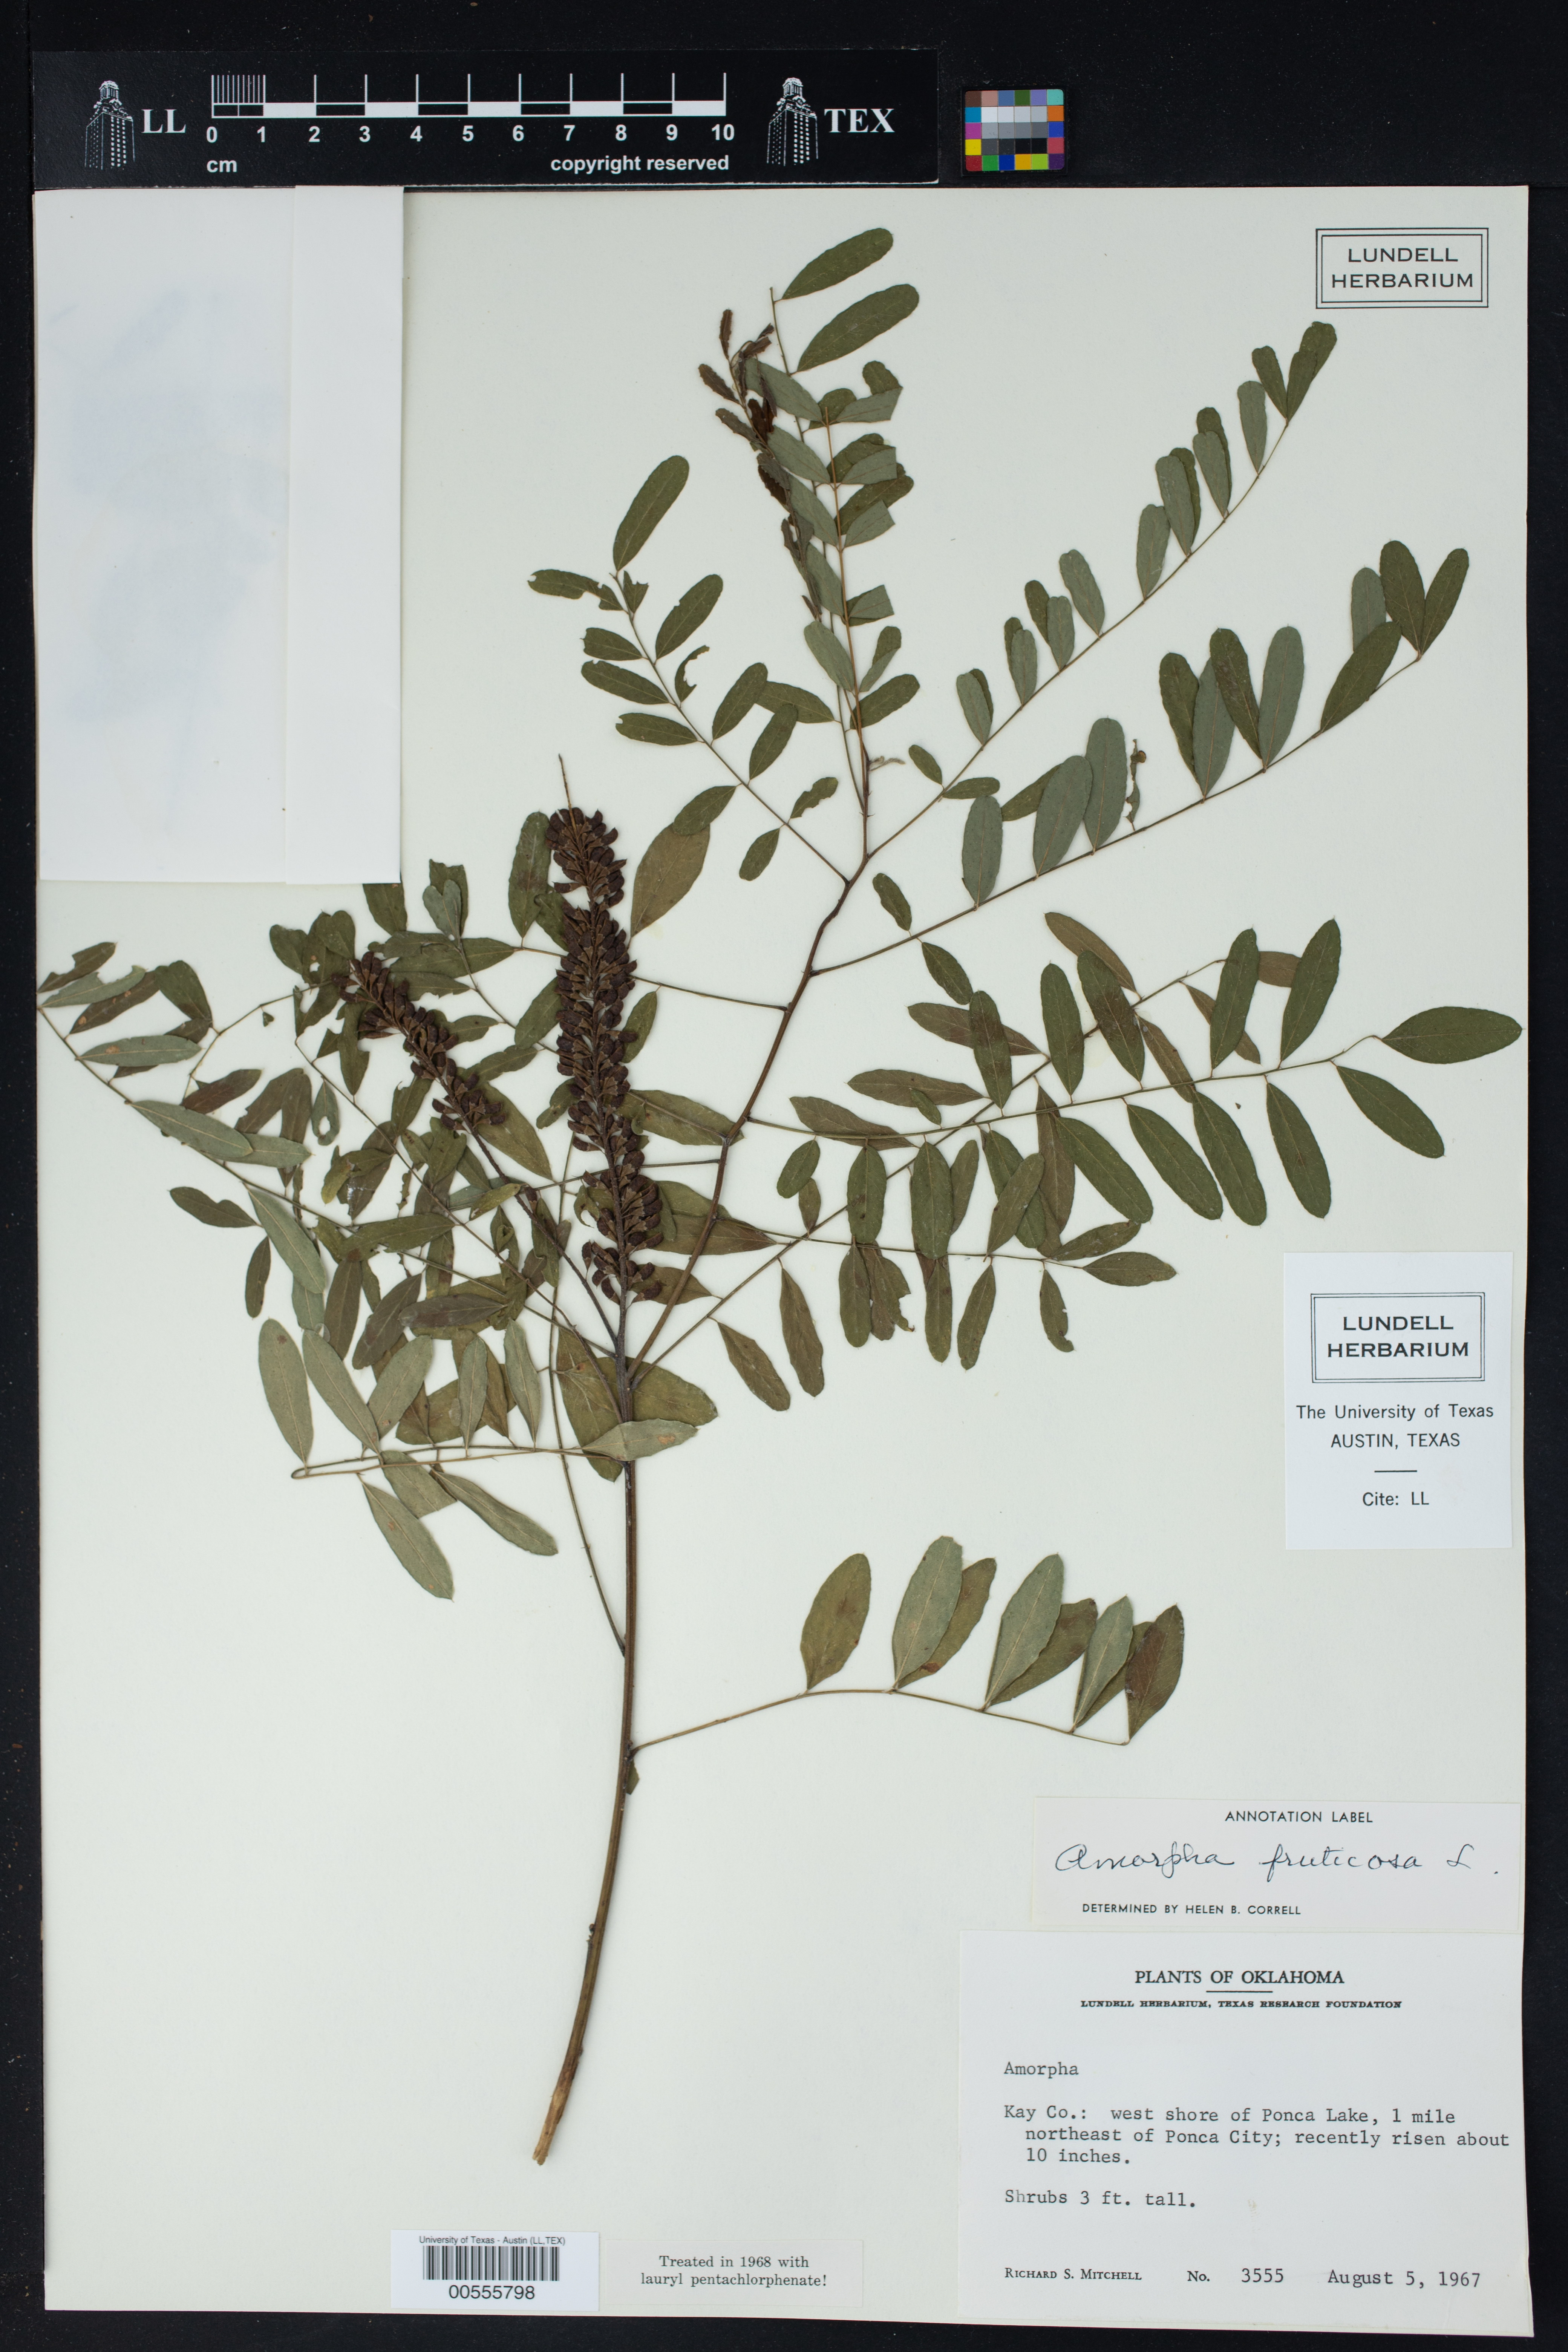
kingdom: Plantae
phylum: Tracheophyta
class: Magnoliopsida
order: Fabales
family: Fabaceae
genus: Amorpha
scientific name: Amorpha fruticosa
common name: False indigo
